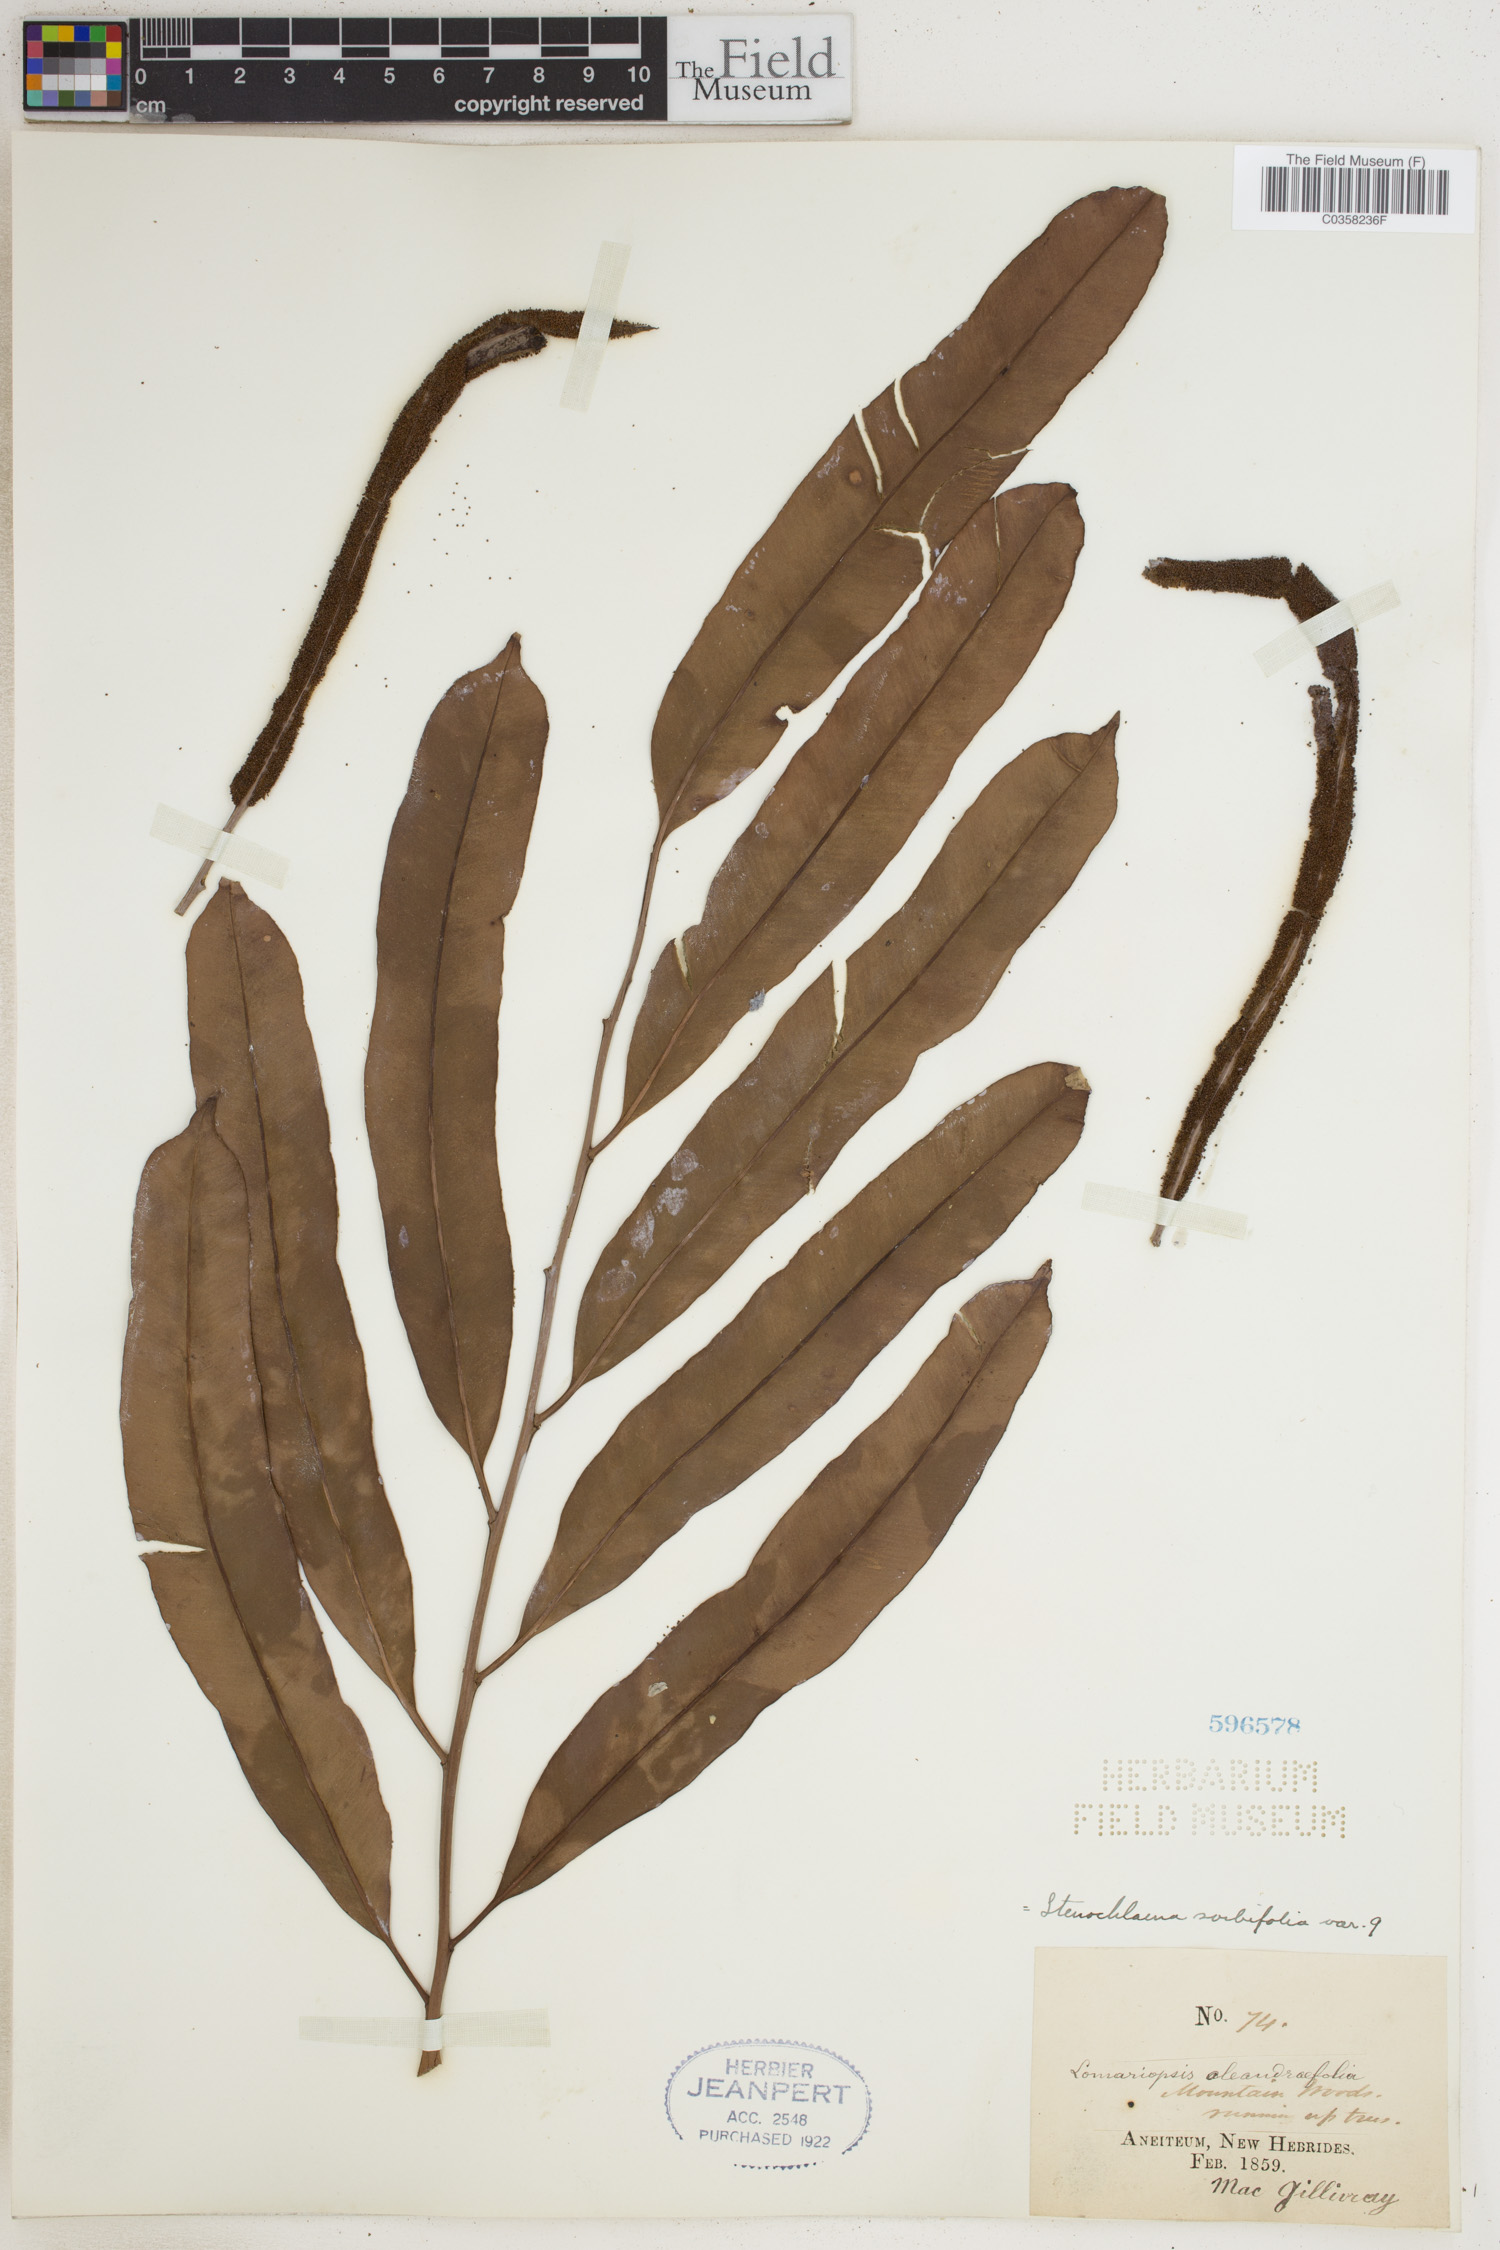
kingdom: Plantae
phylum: Tracheophyta
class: Polypodiopsida
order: Polypodiales
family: Lomariopsidaceae
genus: Lomariopsis
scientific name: Lomariopsis sorbifolia
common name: Acacia fringedfern
